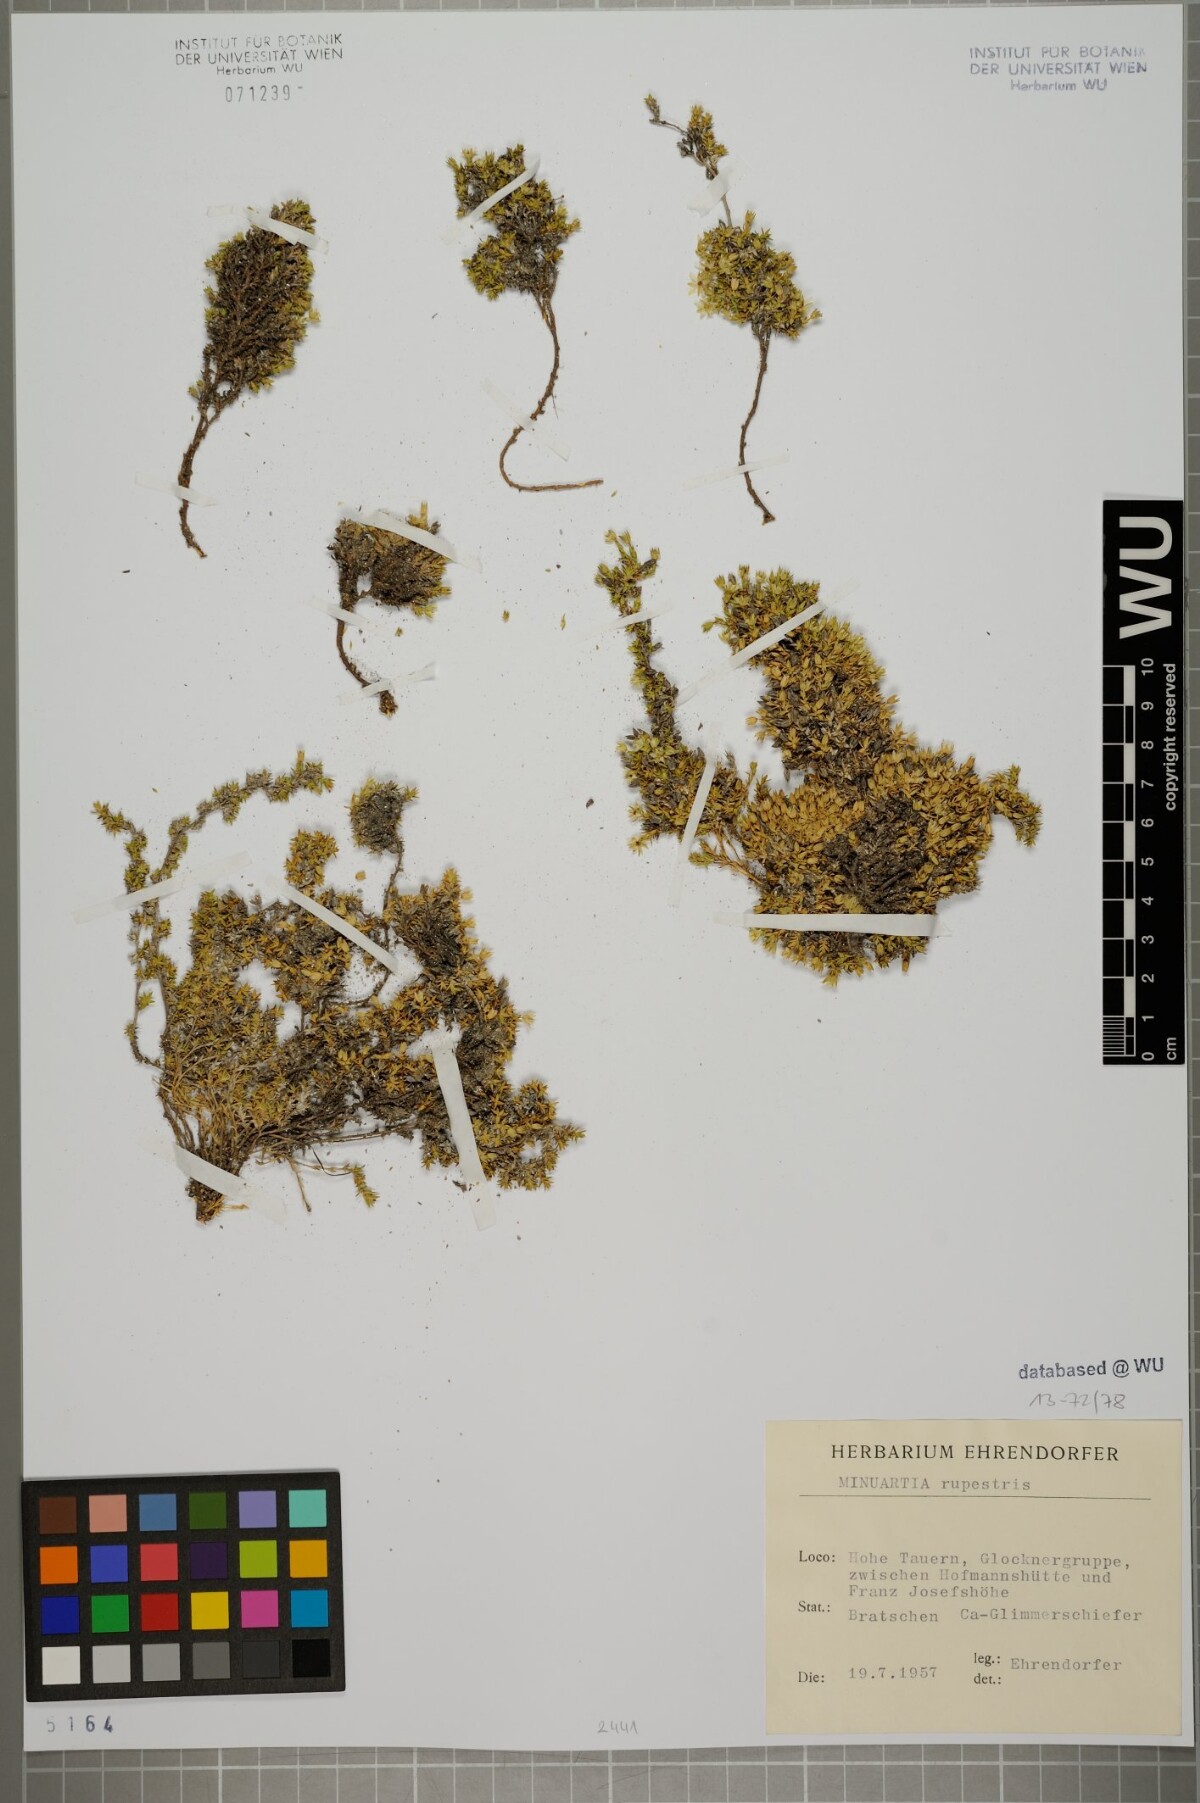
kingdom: Plantae
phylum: Tracheophyta
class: Magnoliopsida
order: Caryophyllales
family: Caryophyllaceae
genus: Facchinia
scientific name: Facchinia rupestris
